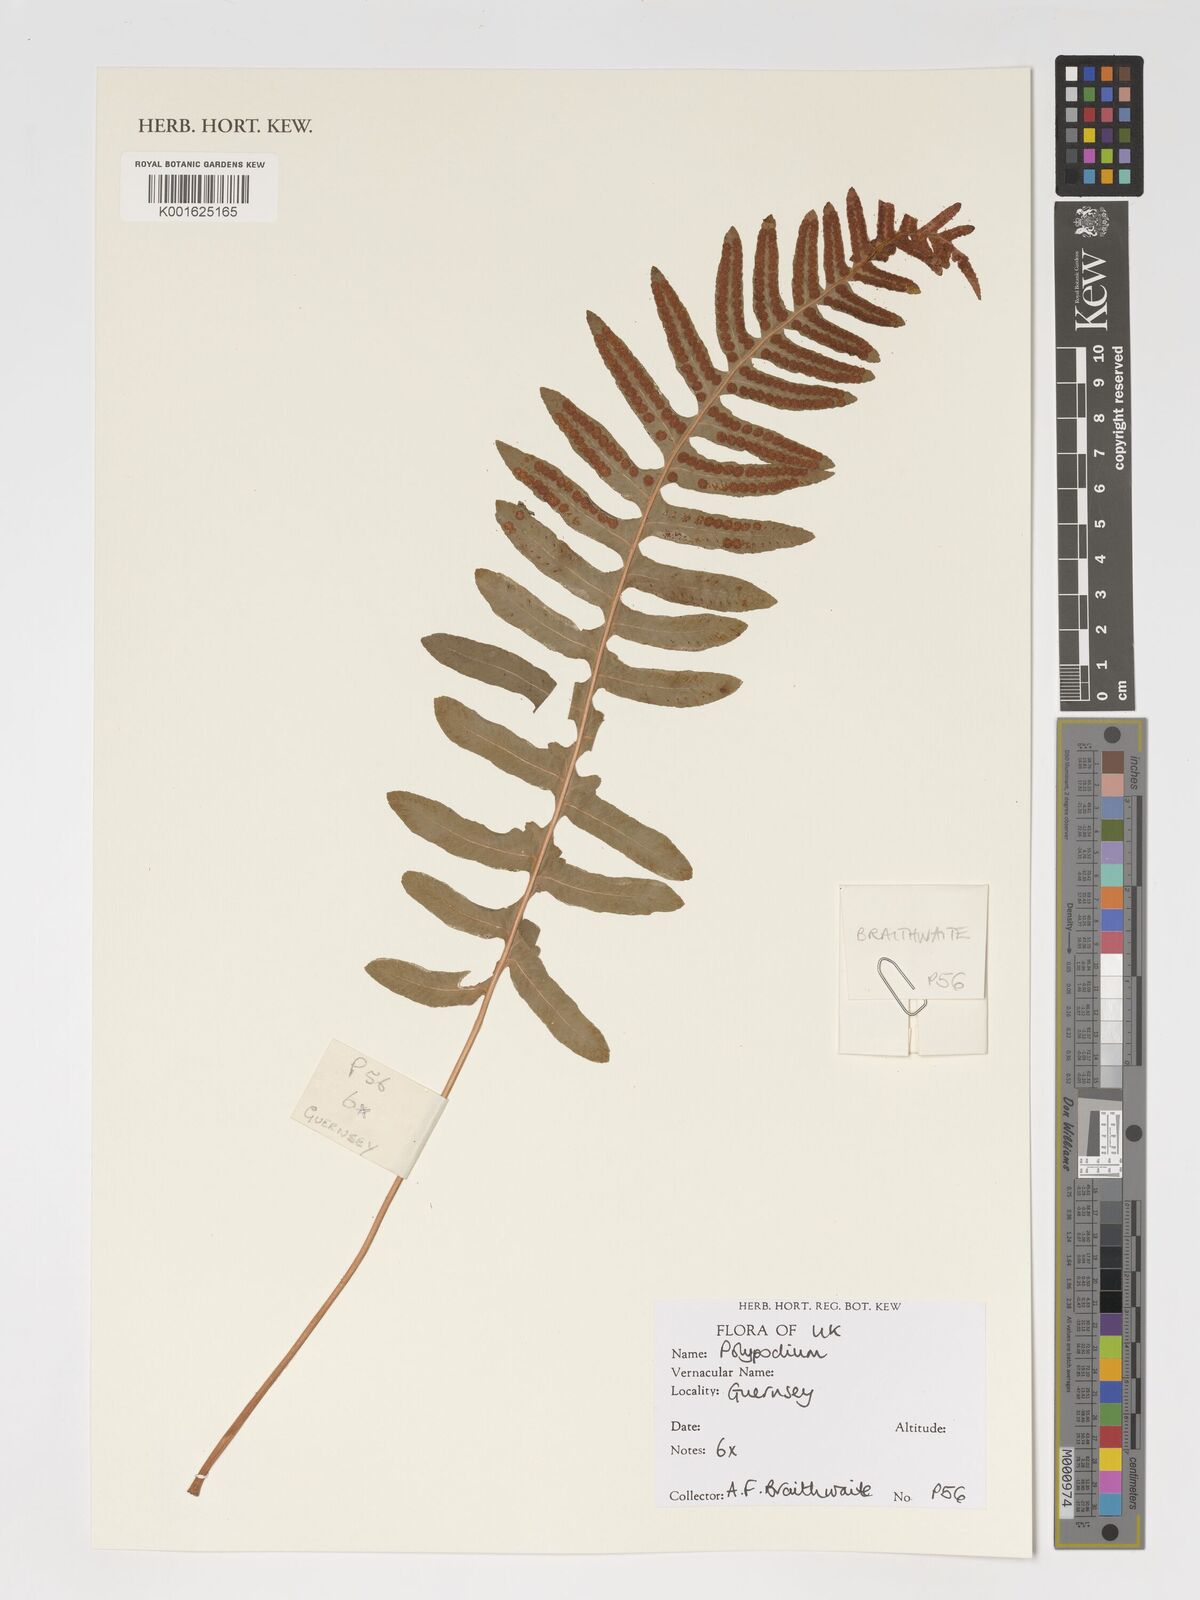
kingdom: Plantae
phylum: Tracheophyta
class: Polypodiopsida
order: Polypodiales
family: Polypodiaceae
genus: Polypodium
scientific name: Polypodium
